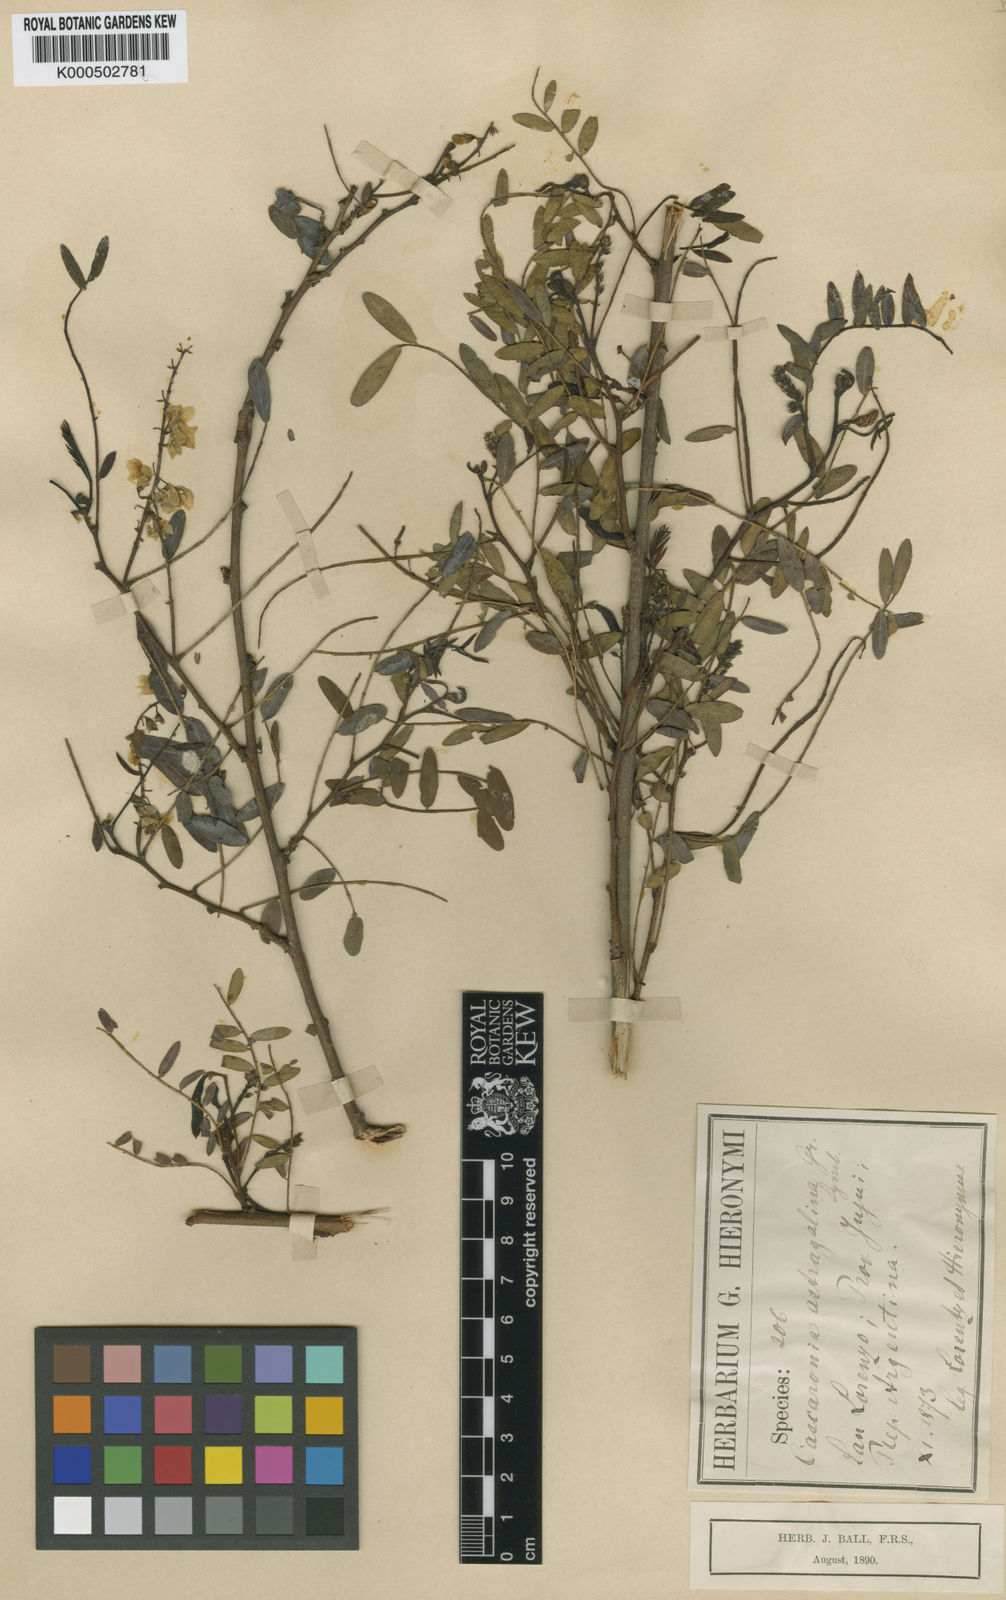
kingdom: Plantae
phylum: Tracheophyta
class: Magnoliopsida
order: Fabales
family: Fabaceae
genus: Glycyrrhiza
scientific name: Glycyrrhiza astragalina
